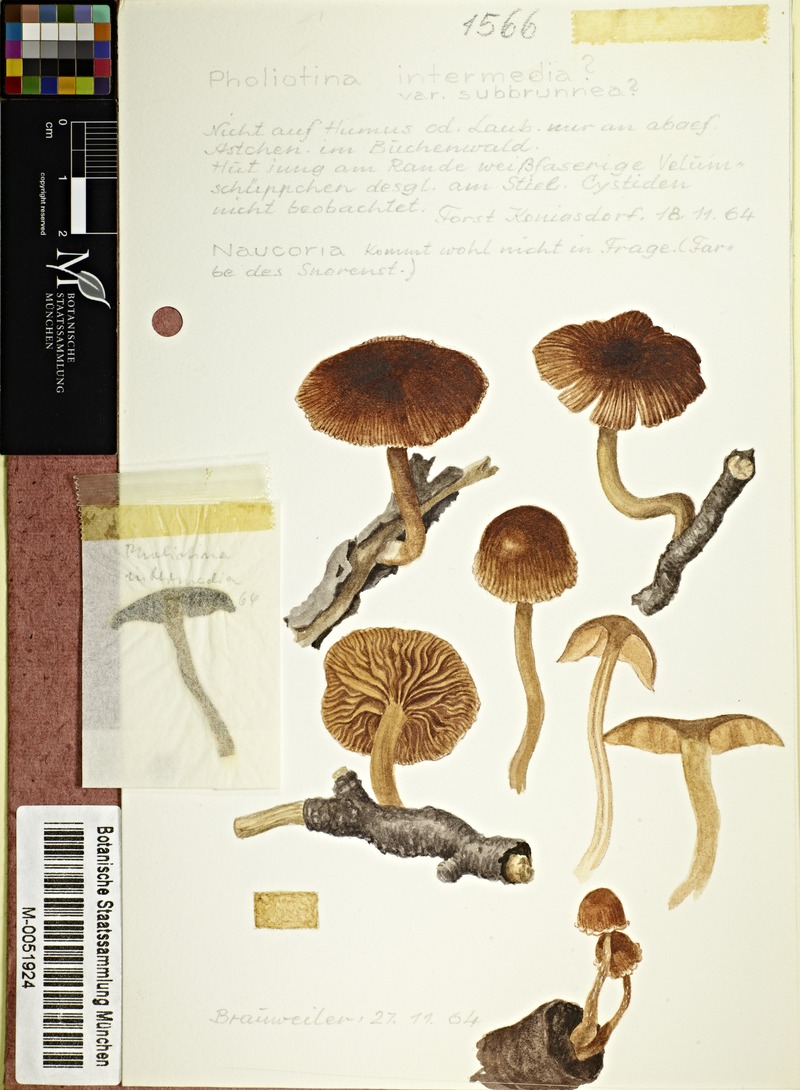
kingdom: Fungi
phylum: Basidiomycota
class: Agaricomycetes
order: Agaricales
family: Bolbitiaceae
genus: Conocybe
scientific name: Conocybe intermedia
